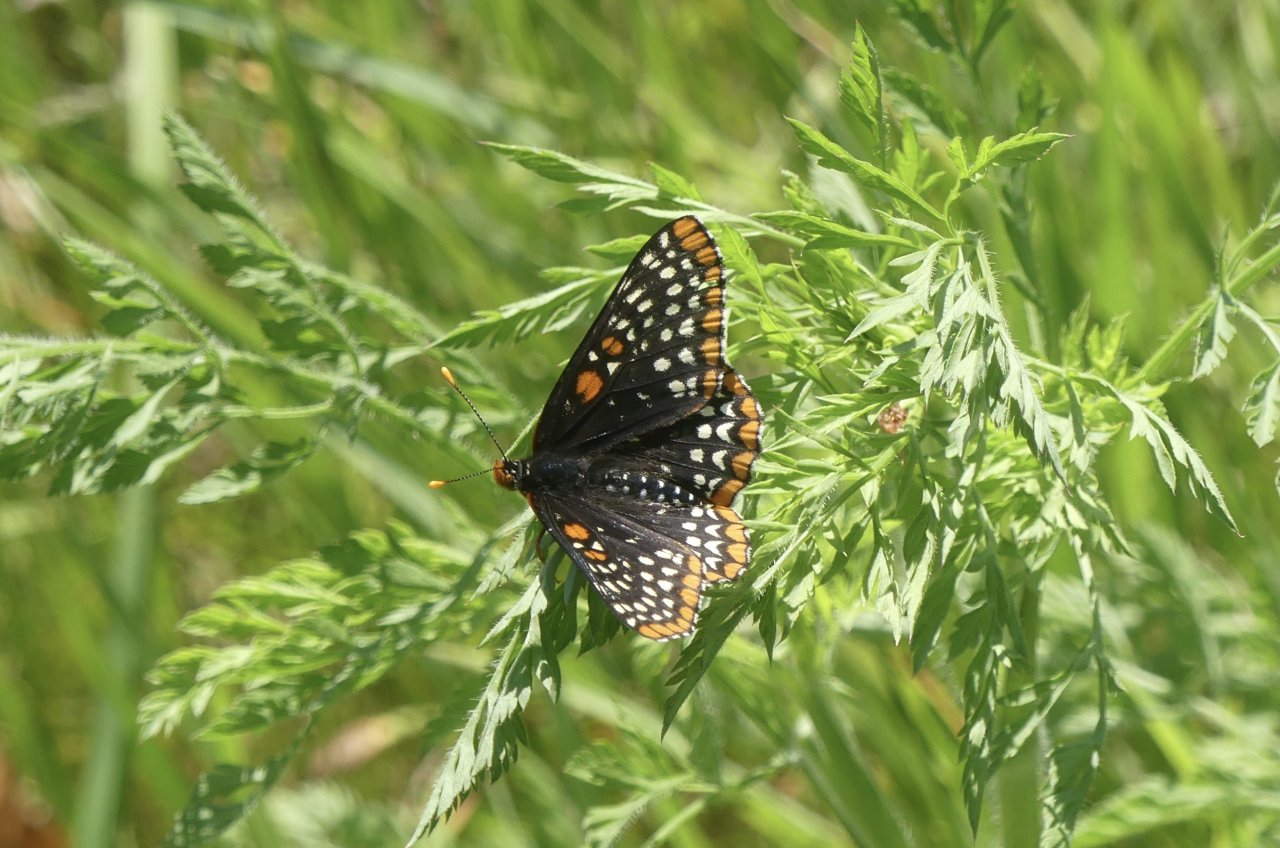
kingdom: Animalia
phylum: Arthropoda
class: Insecta
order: Lepidoptera
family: Nymphalidae
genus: Euphydryas
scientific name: Euphydryas phaeton
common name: Baltimore Checkerspot
